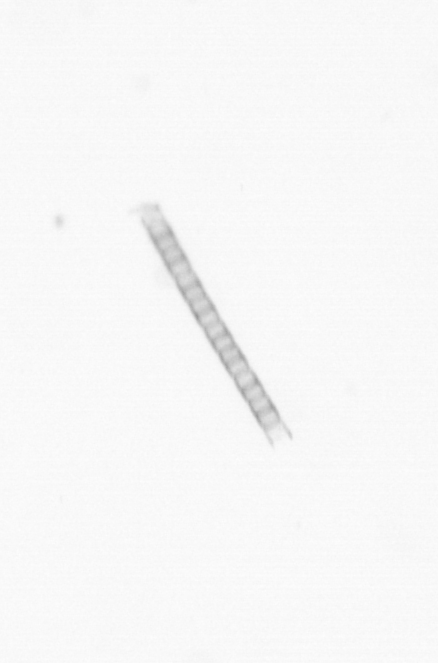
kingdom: Chromista
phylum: Ochrophyta
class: Bacillariophyceae
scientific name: Bacillariophyceae
